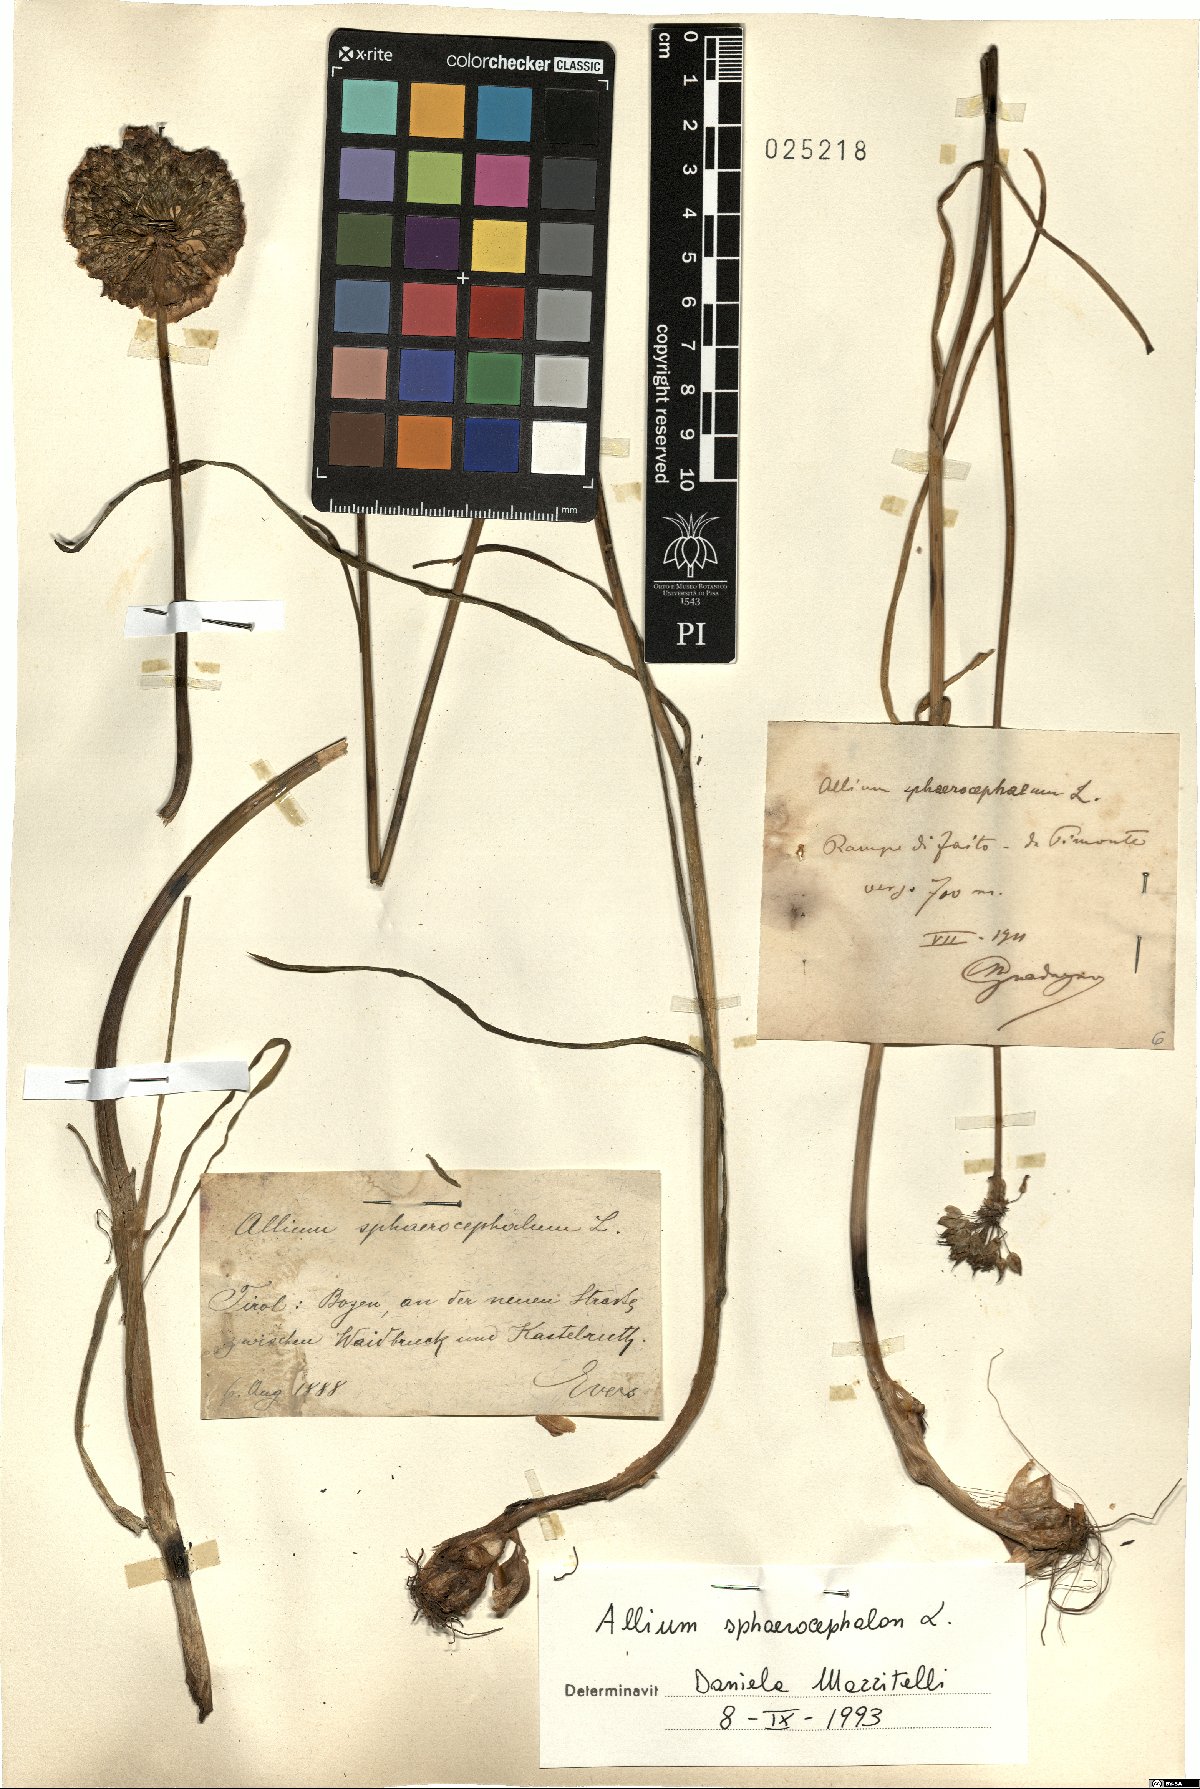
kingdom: Plantae
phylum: Tracheophyta
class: Liliopsida
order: Asparagales
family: Amaryllidaceae
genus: Allium
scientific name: Allium sphaerocephalon
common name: Round-headed leek
